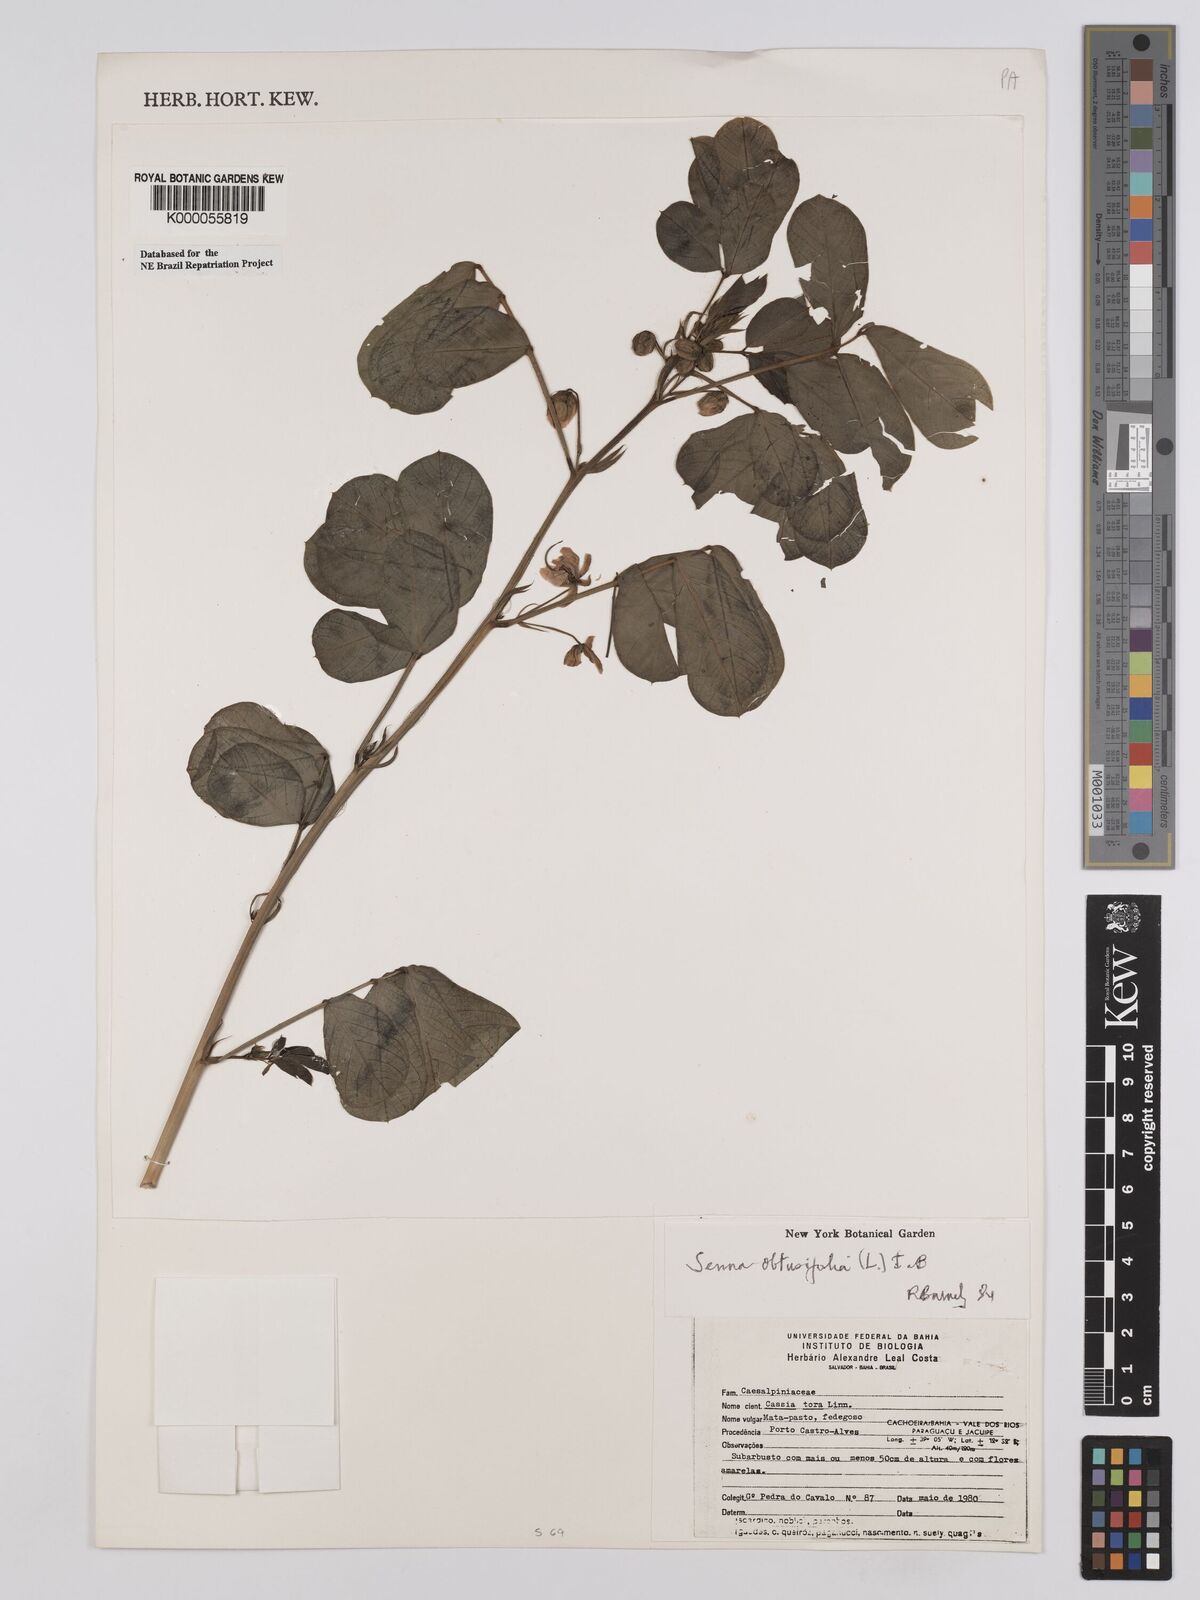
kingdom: Plantae
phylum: Tracheophyta
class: Magnoliopsida
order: Fabales
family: Fabaceae
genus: Senna
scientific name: Senna obtusifolia
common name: Java-bean
